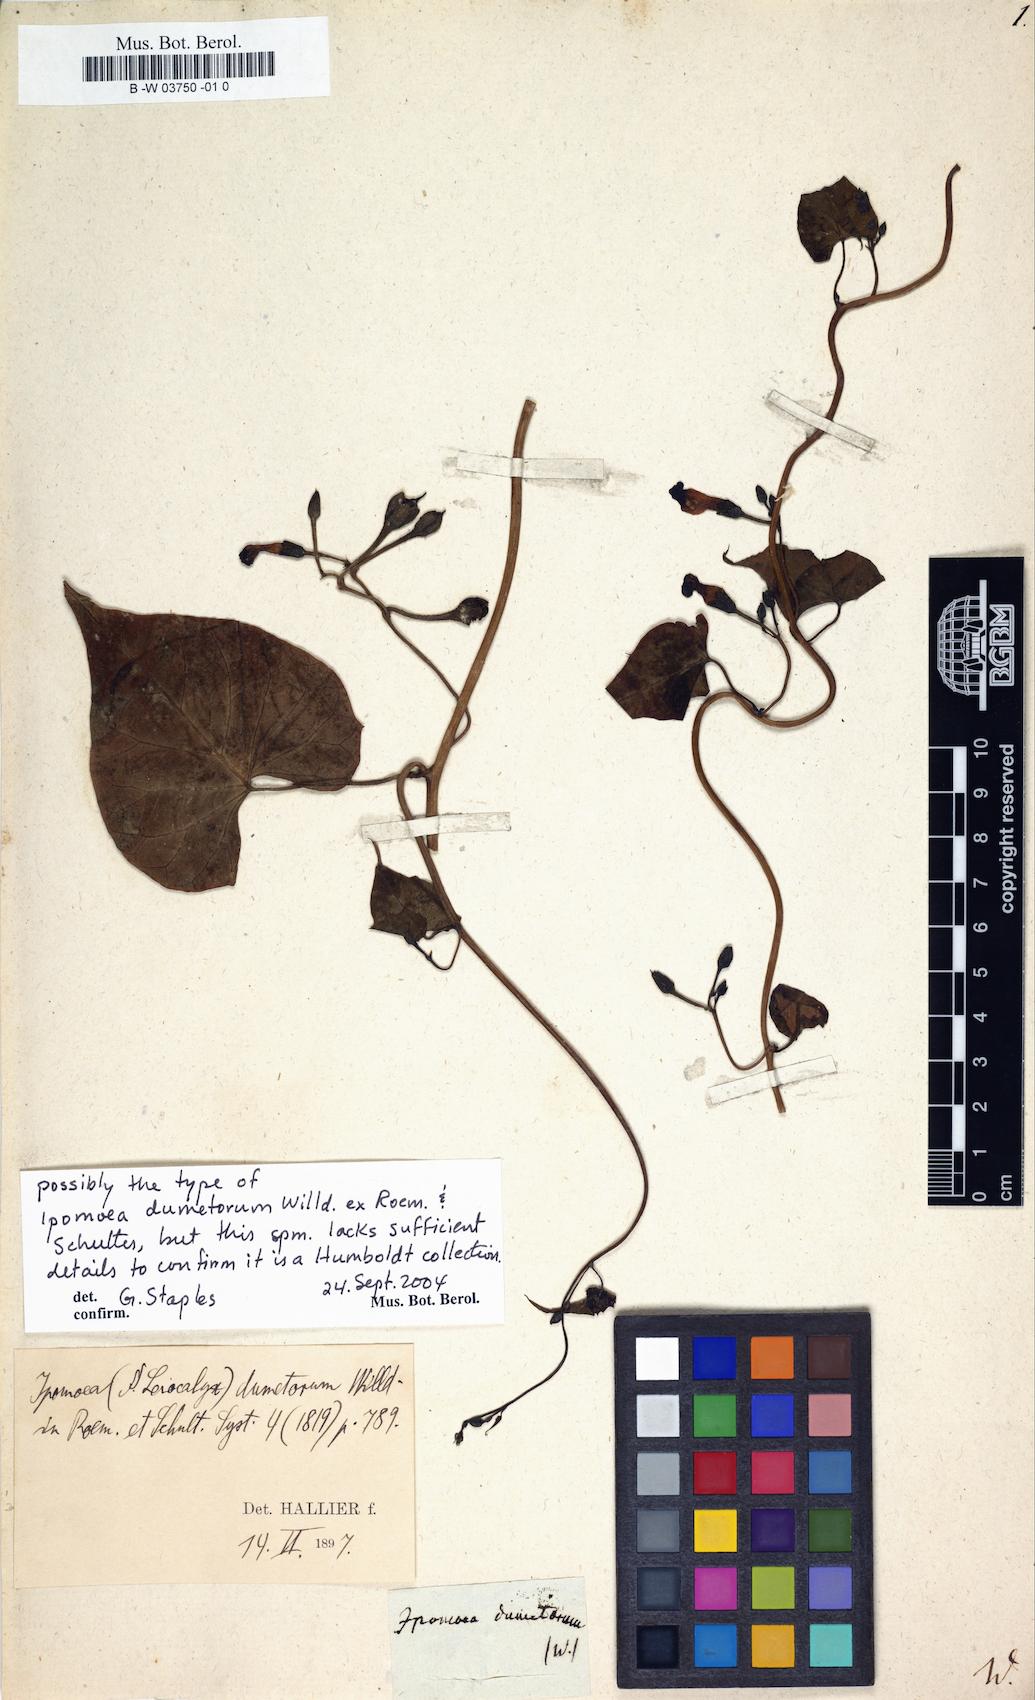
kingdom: Plantae
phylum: Tracheophyta
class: Magnoliopsida
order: Solanales
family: Convolvulaceae
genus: Ipomoea
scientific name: Ipomoea dumetorum
